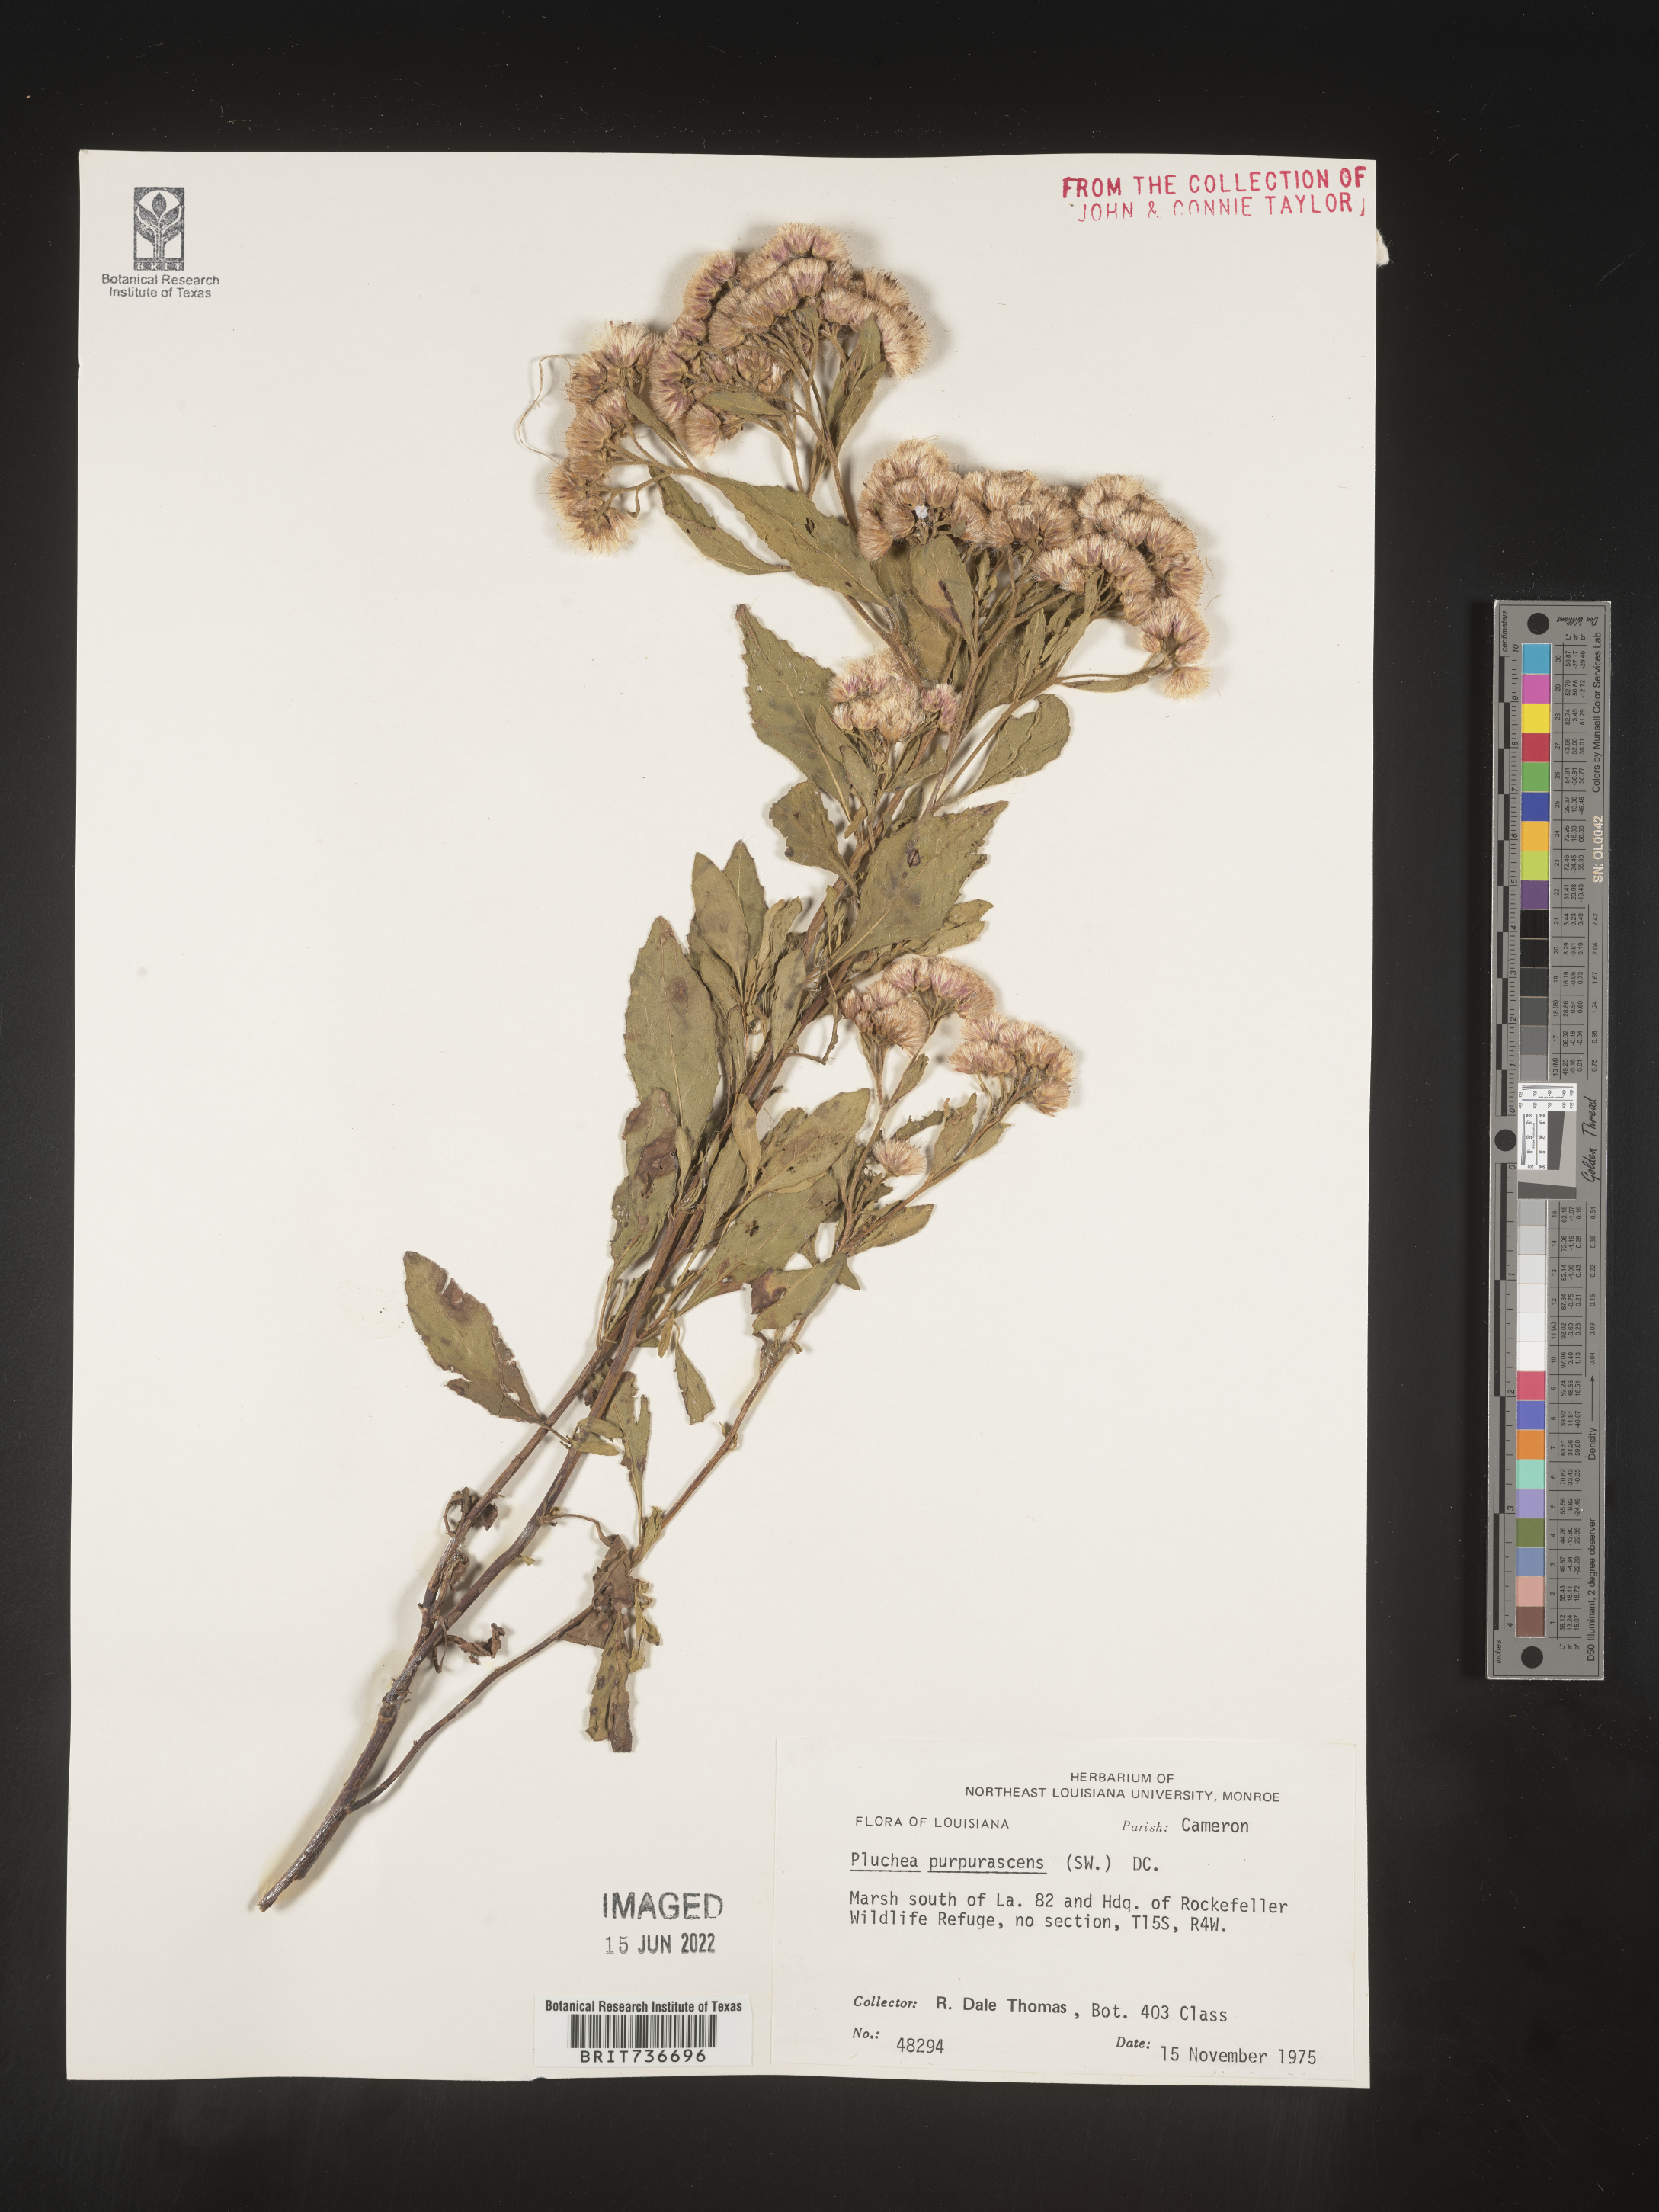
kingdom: Plantae
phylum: Tracheophyta
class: Magnoliopsida
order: Asterales
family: Asteraceae
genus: Pluchea
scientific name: Pluchea odorata
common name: Saltmarsh fleabane
